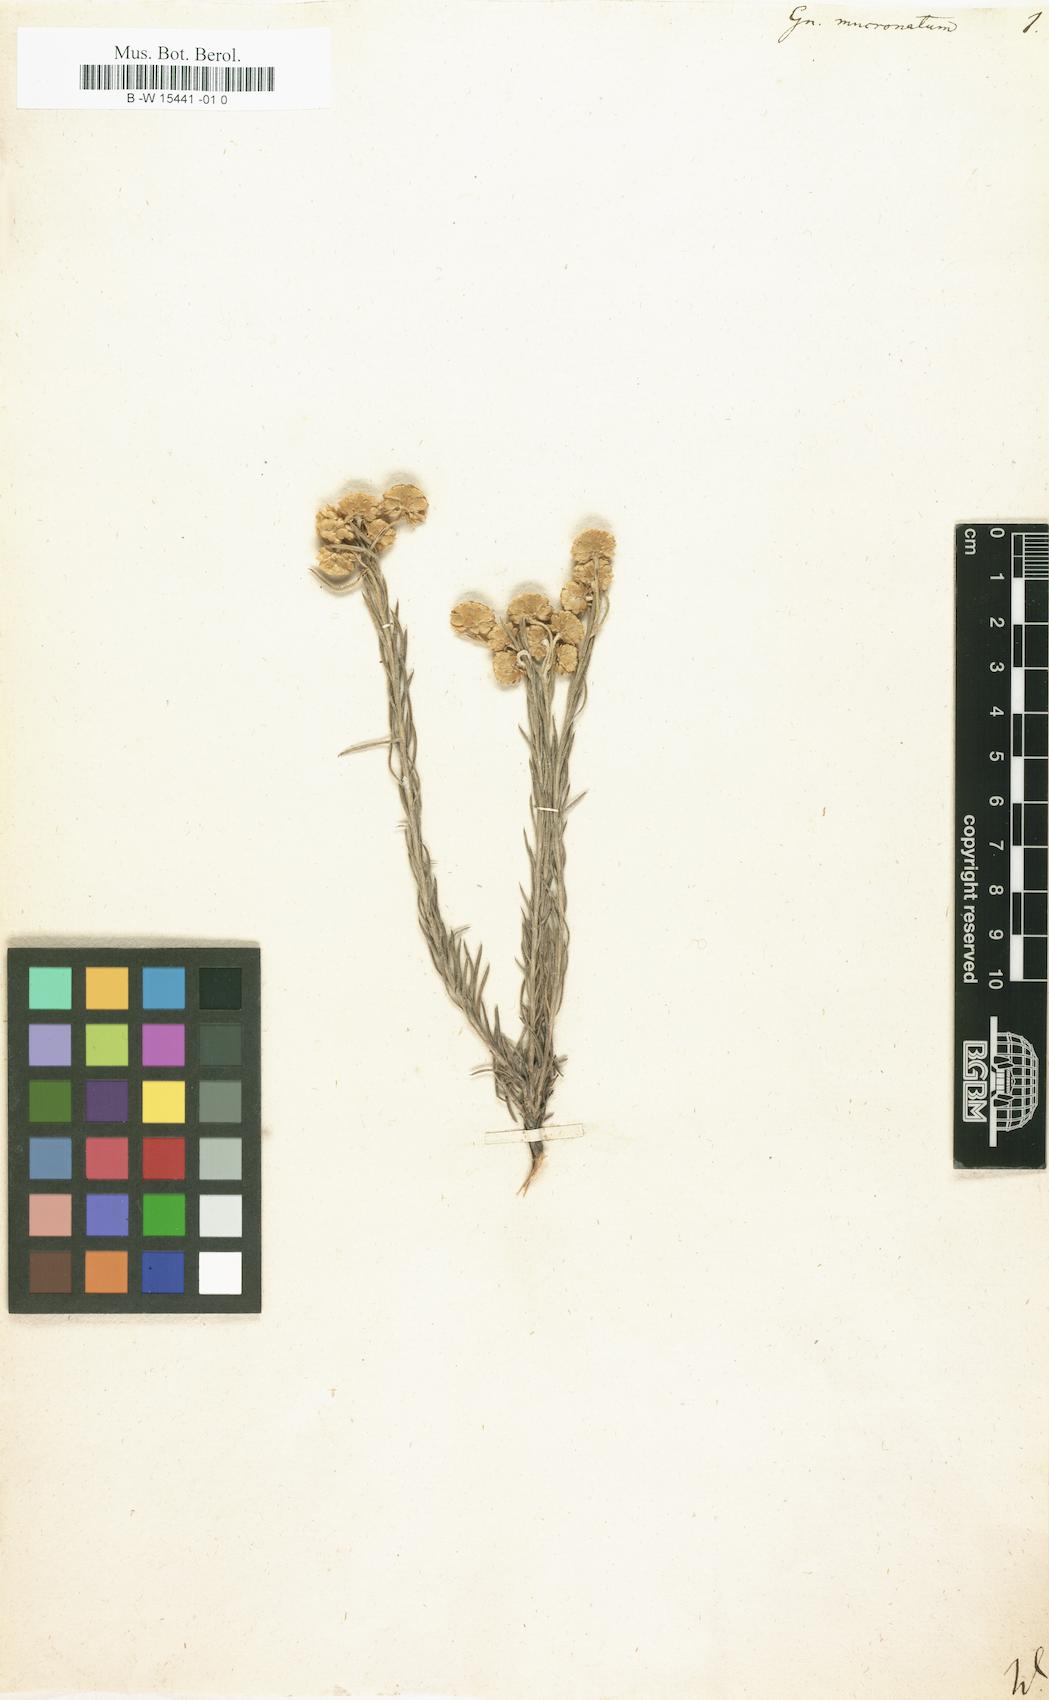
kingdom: Plantae
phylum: Tracheophyta
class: Magnoliopsida
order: Asterales
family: Asteraceae
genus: Achyranthemum
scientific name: Achyranthemum mucronatum
